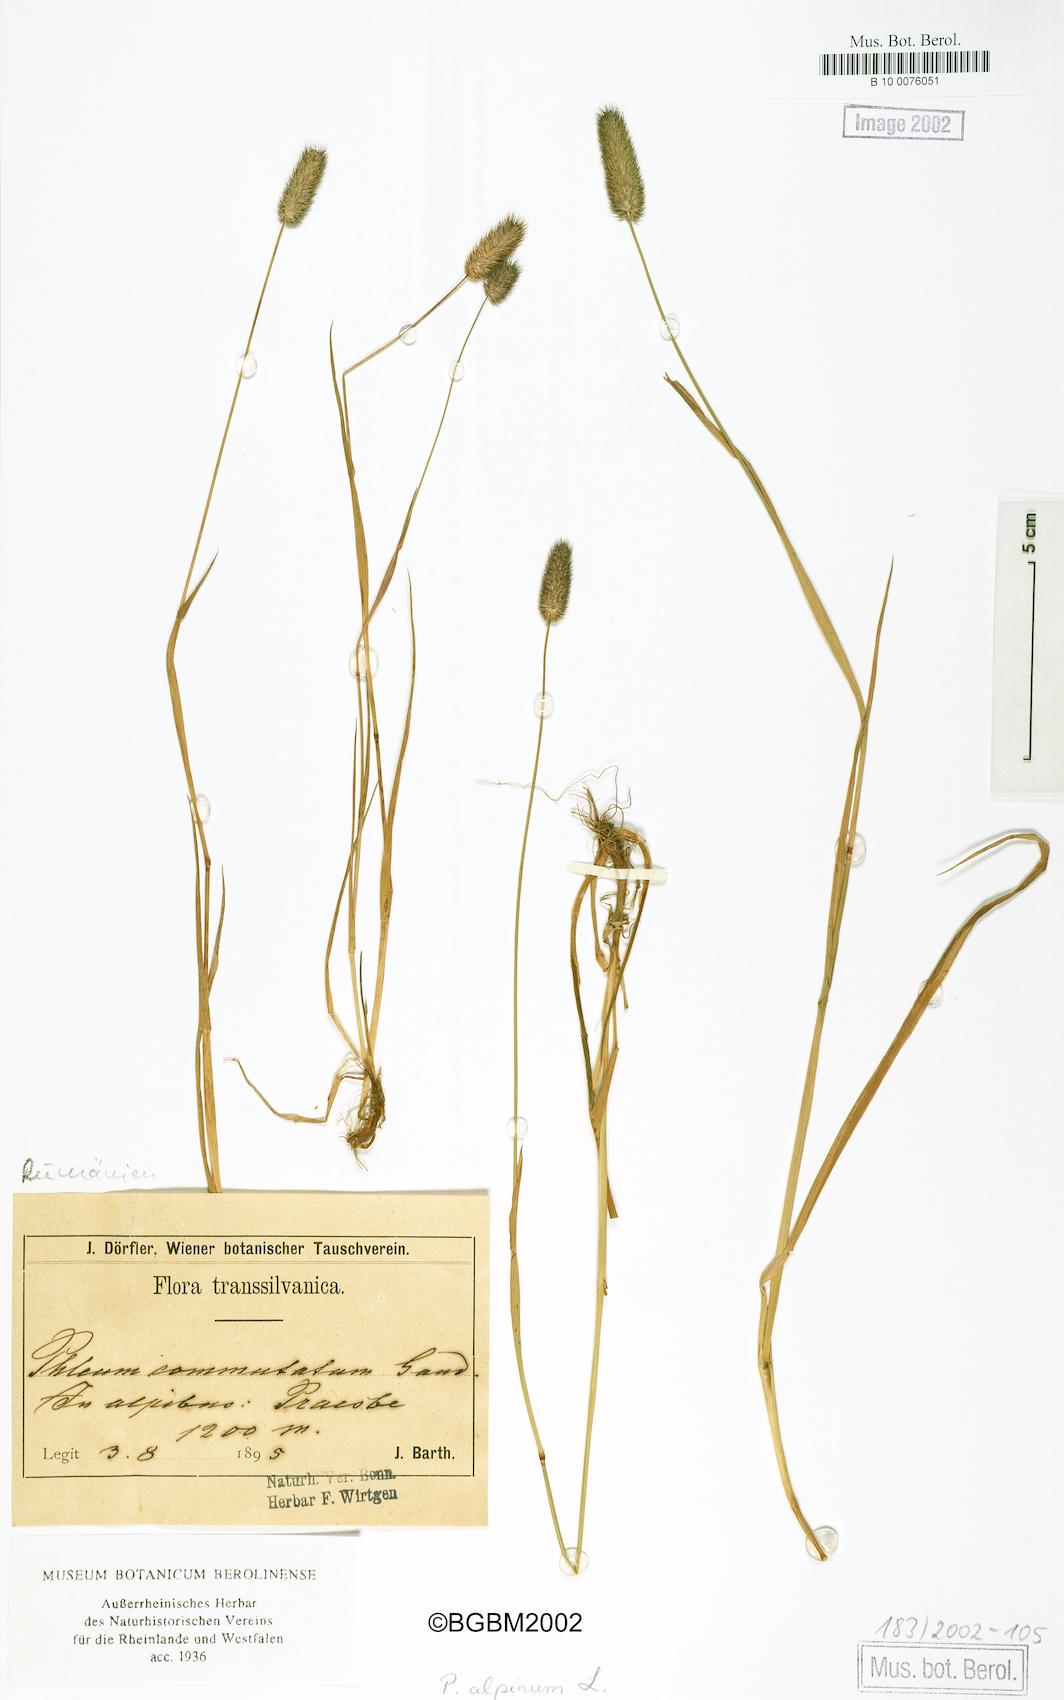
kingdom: Plantae
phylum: Tracheophyta
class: Liliopsida
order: Poales
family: Poaceae
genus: Phleum
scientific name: Phleum alpinum
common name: Alpine cat's-tail
